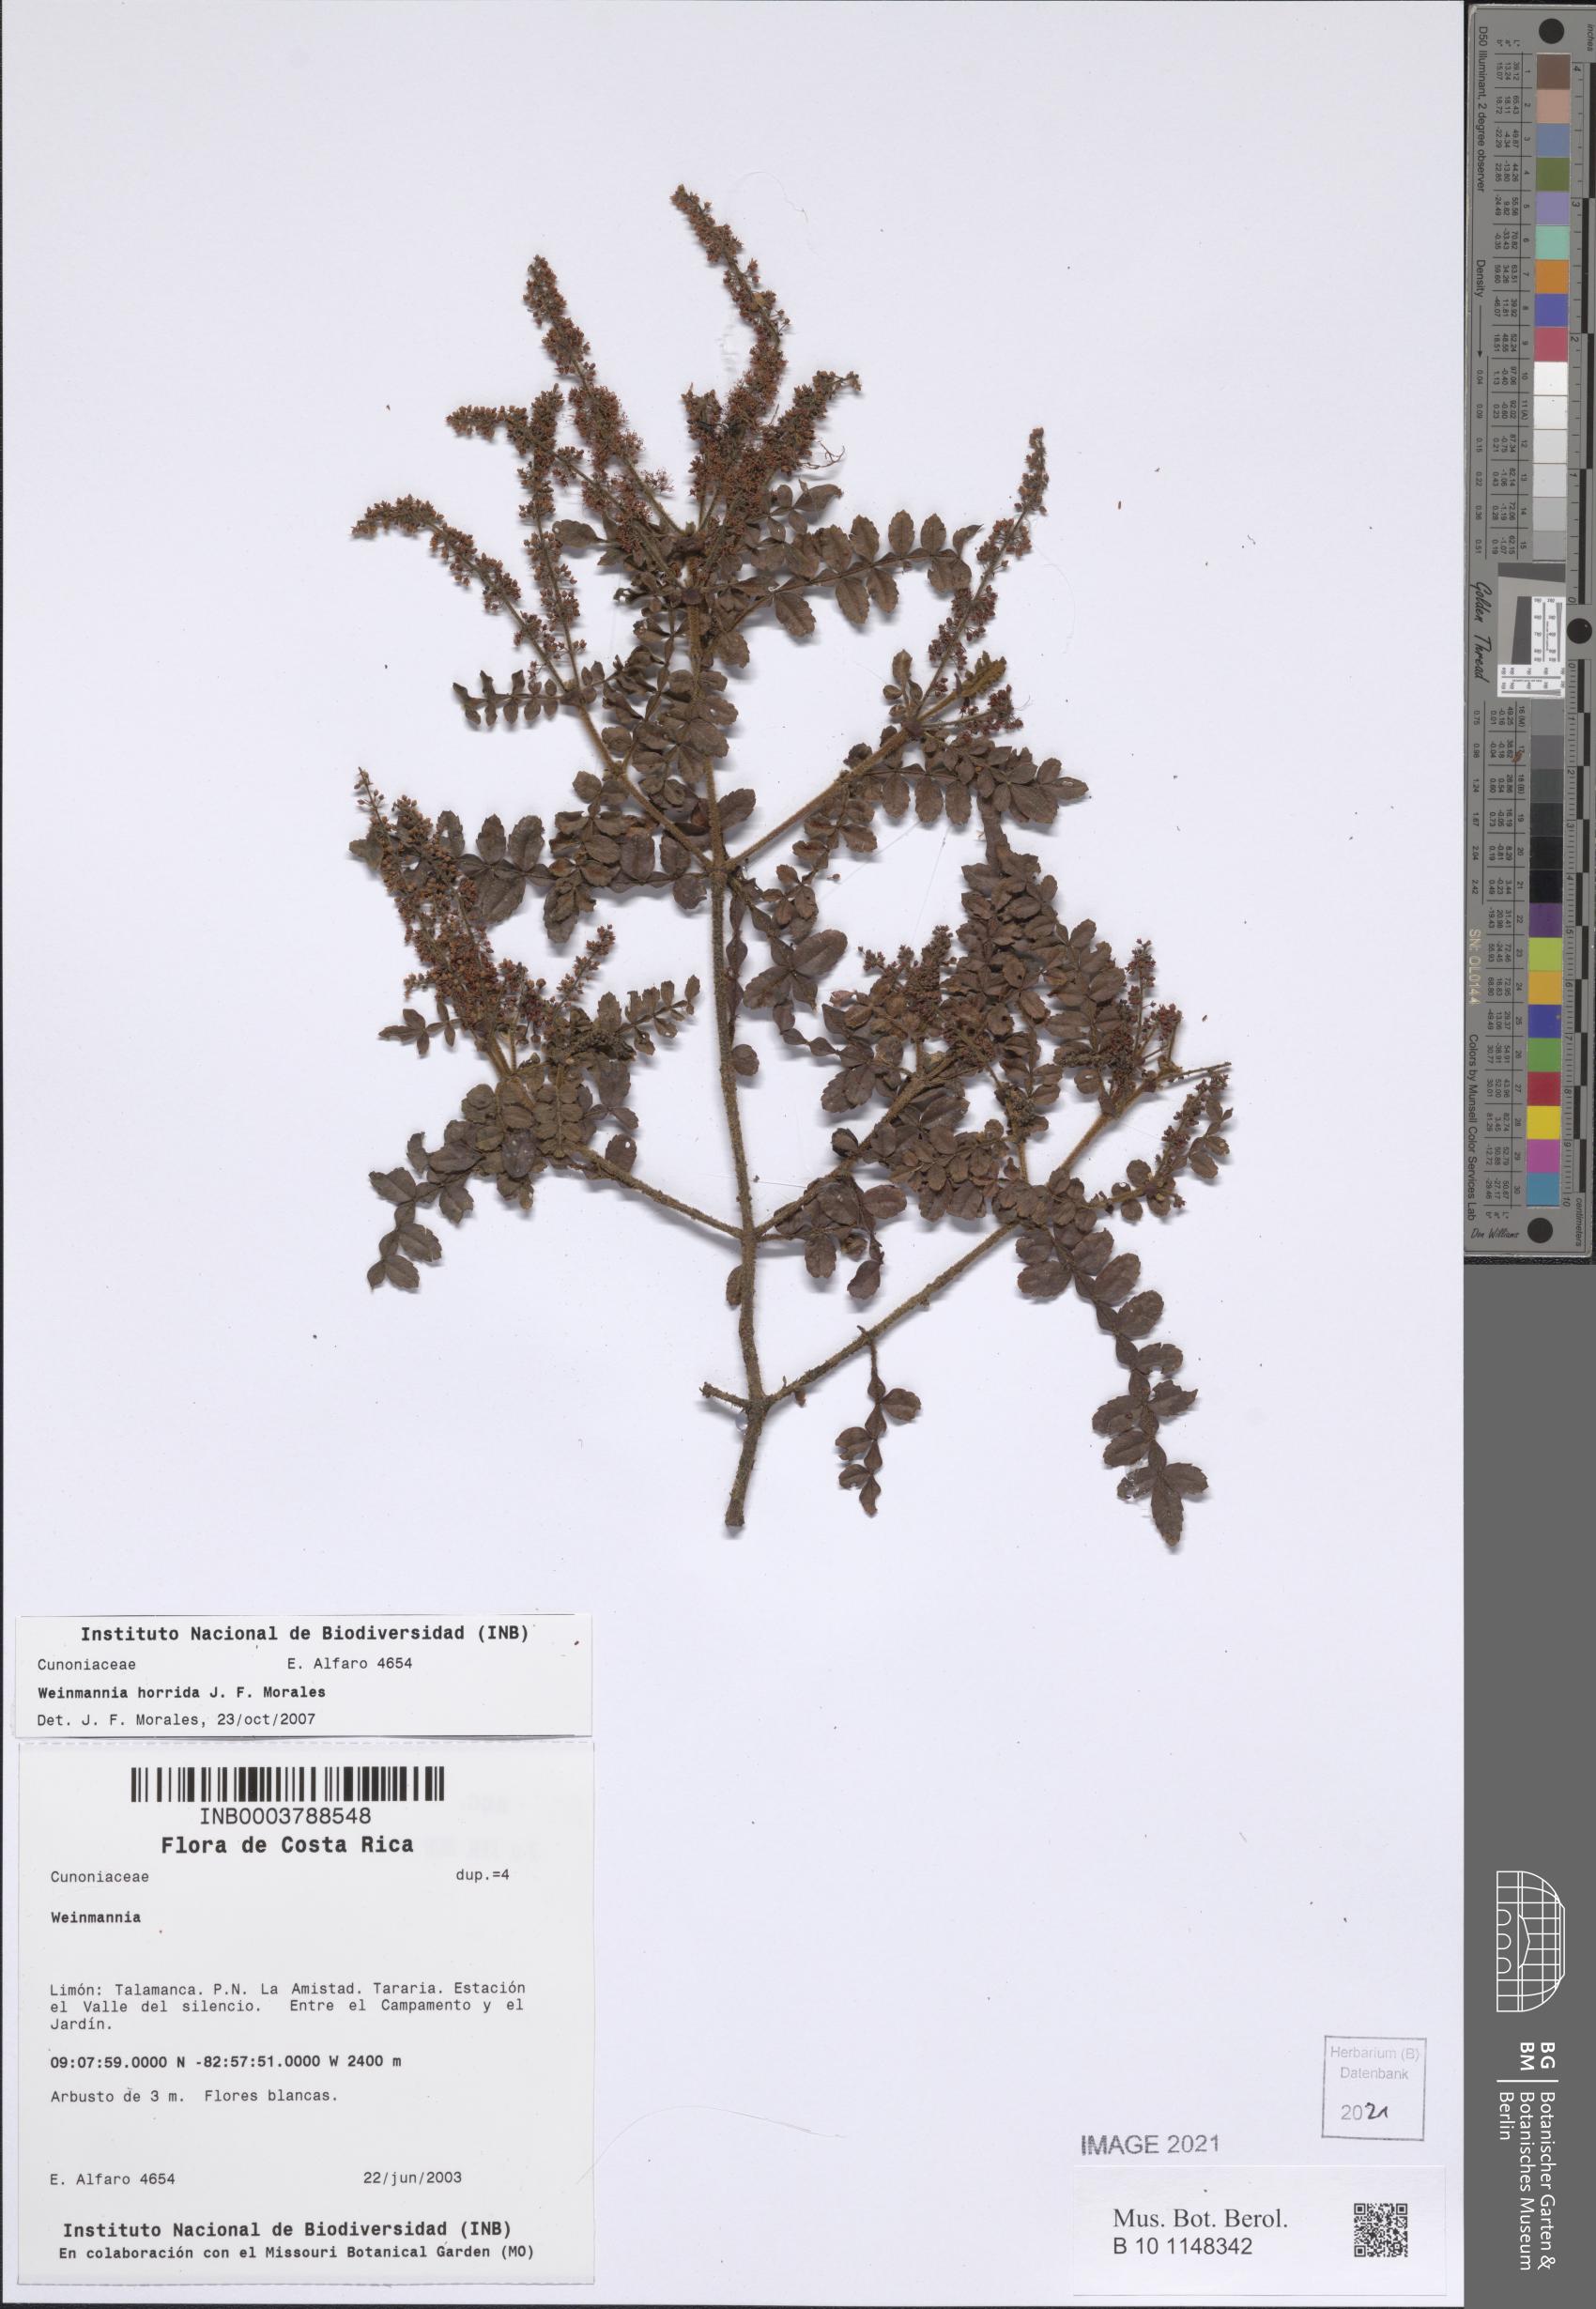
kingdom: Plantae
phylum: Tracheophyta
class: Magnoliopsida
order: Oxalidales
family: Cunoniaceae
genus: Weinmannia
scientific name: Weinmannia horrida
